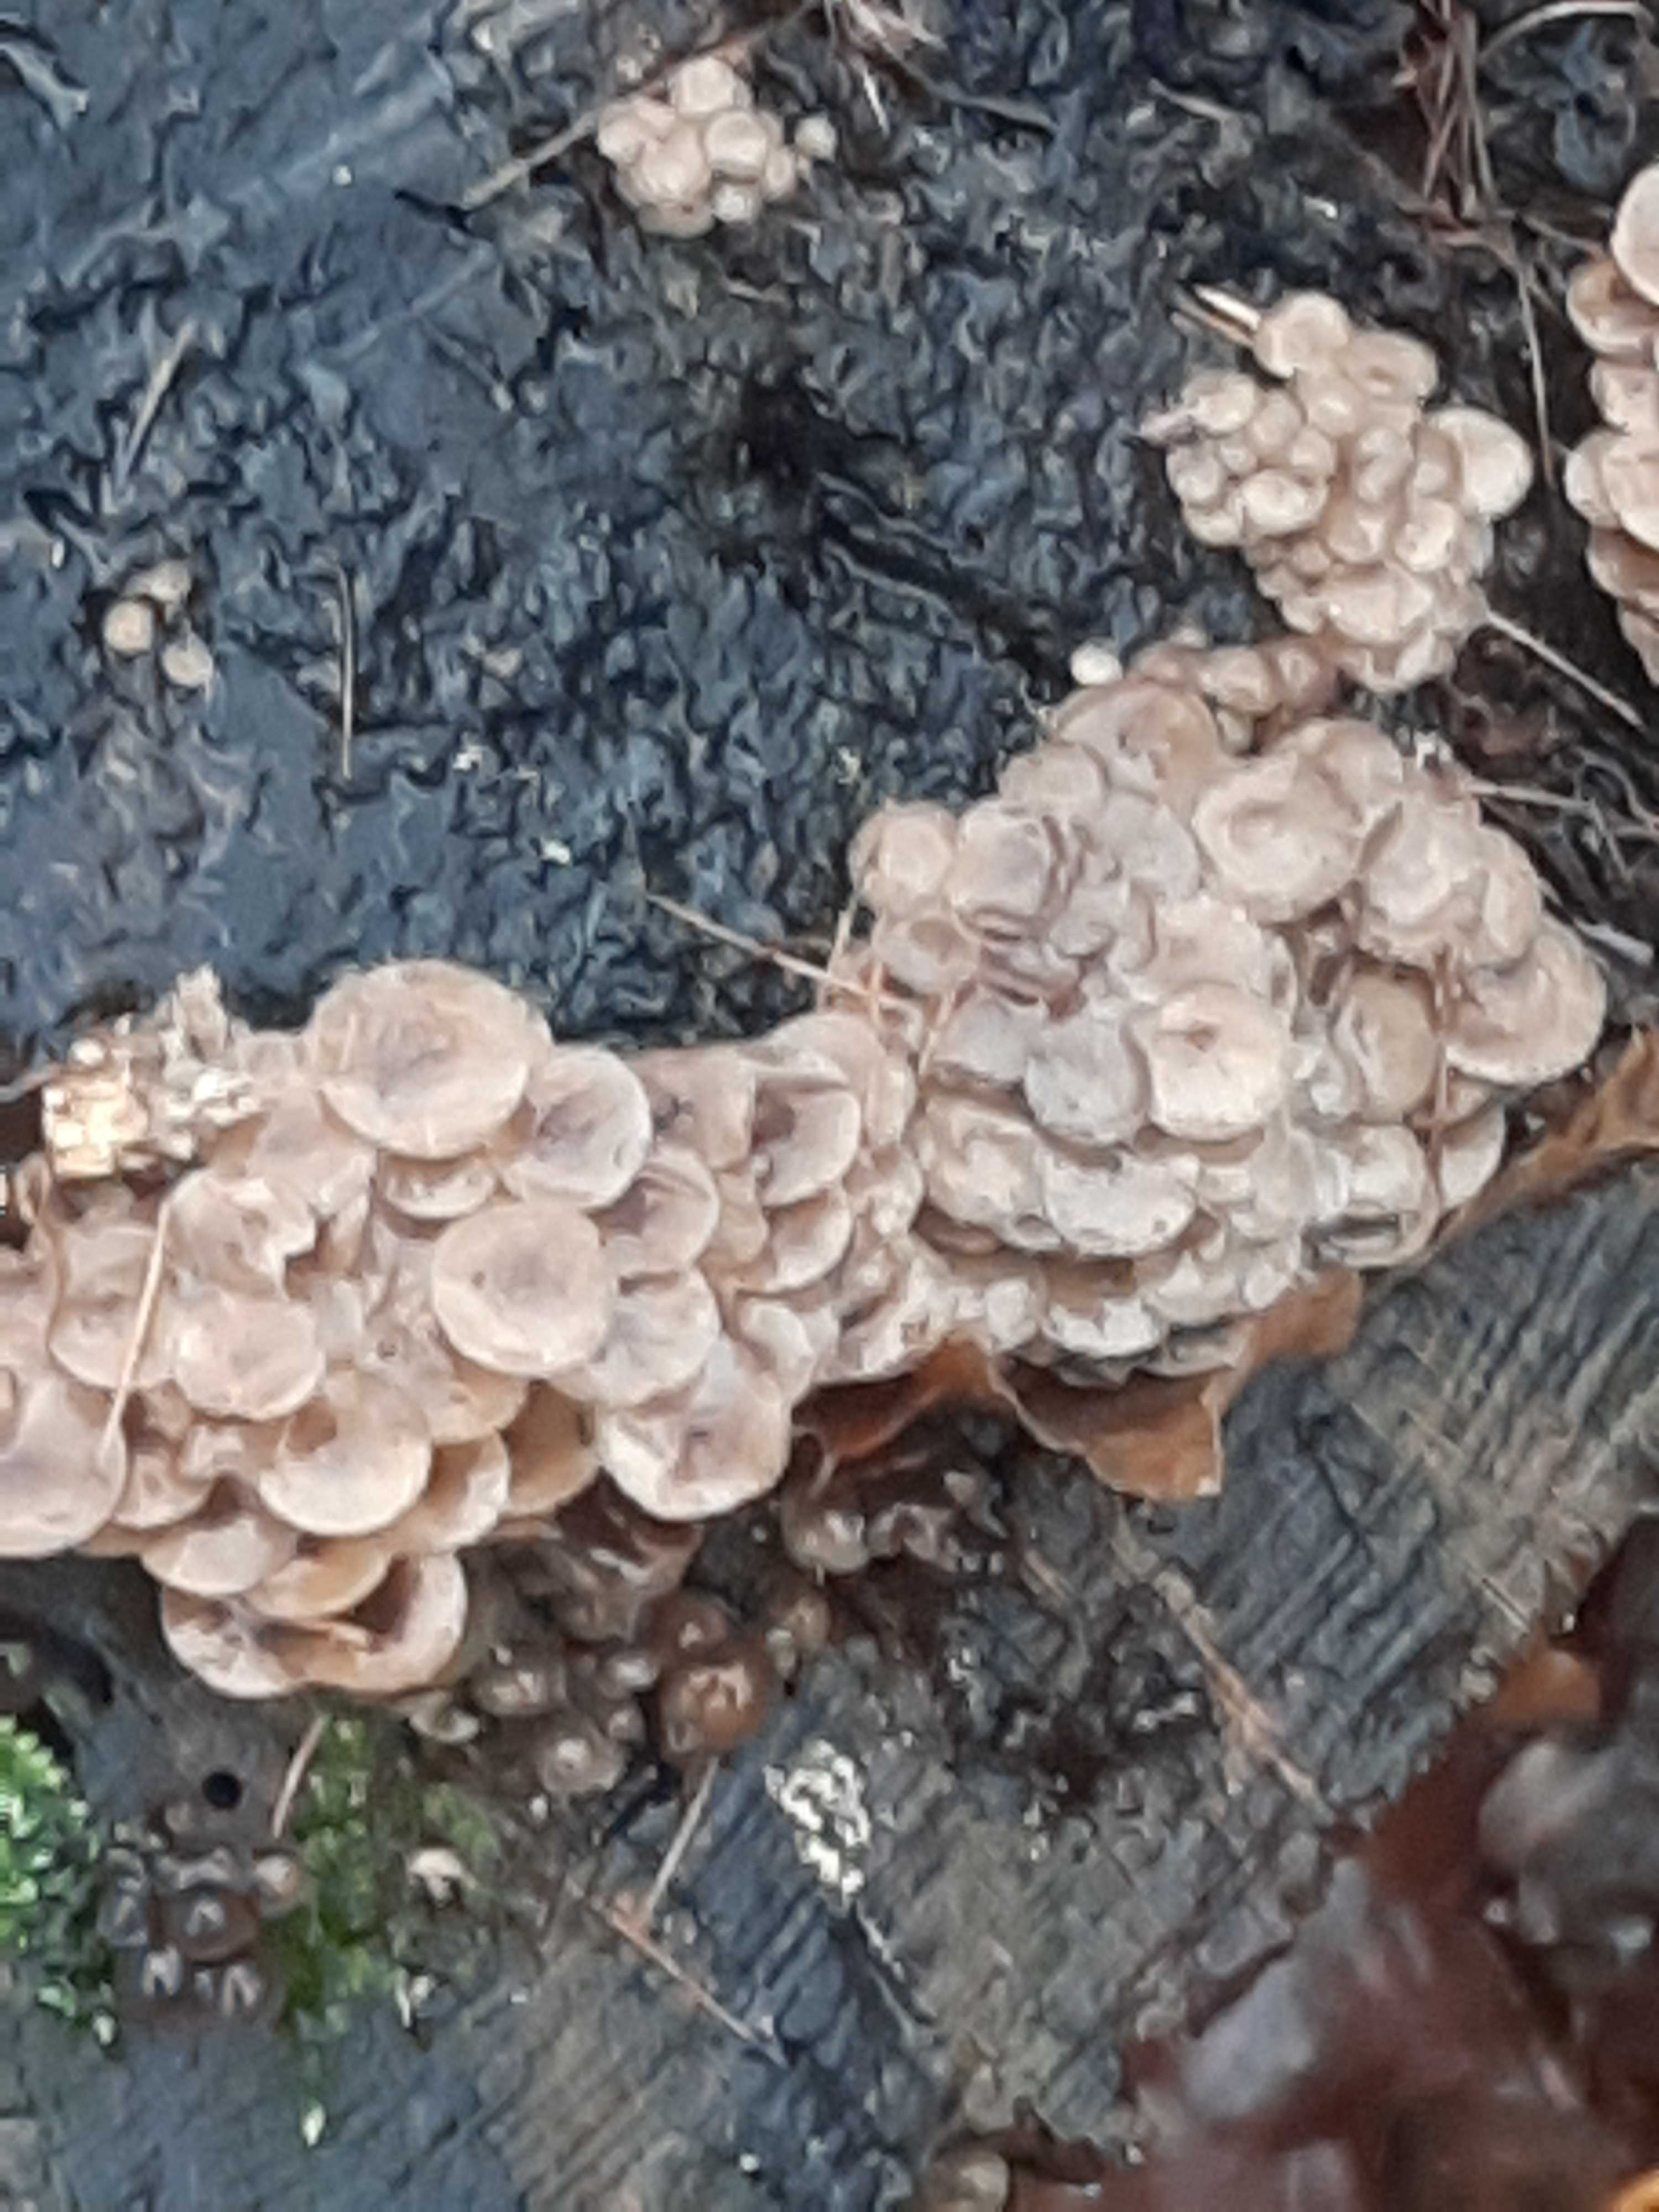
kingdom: Fungi
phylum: Basidiomycota
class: Agaricomycetes
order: Agaricales
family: Mycenaceae
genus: Mycena
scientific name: Mycena tintinnabulum
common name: vinter-huesvamp
